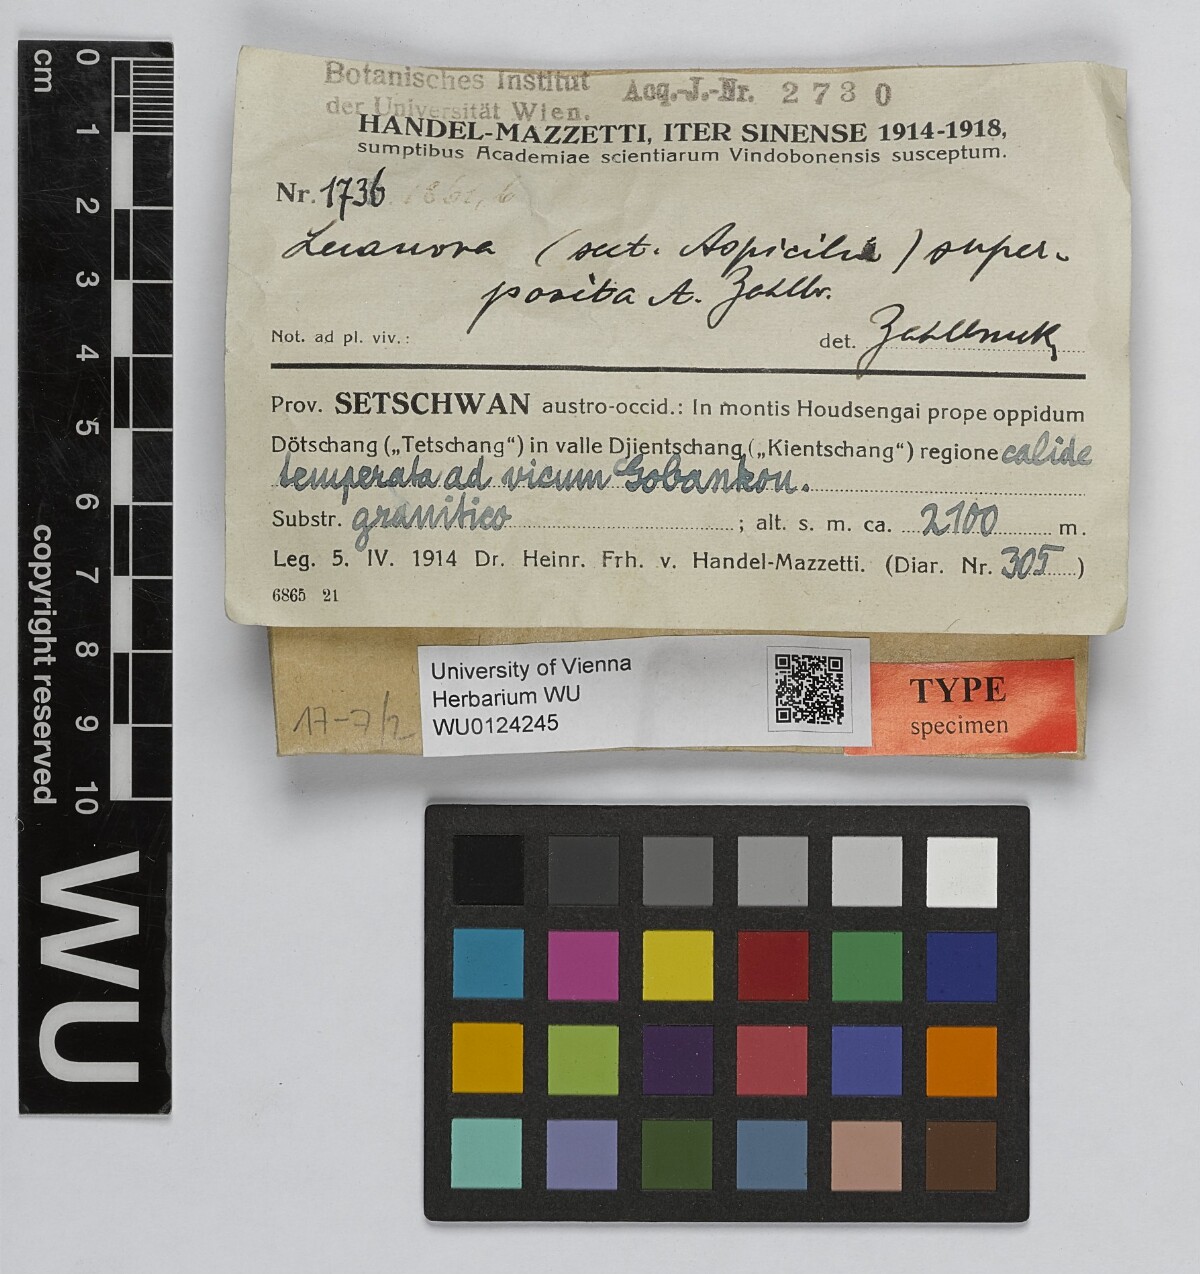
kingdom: Fungi
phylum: Ascomycota
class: Lecanoromycetes
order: Lecanorales
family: Lecanoraceae
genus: Lecanora
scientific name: Lecanora
